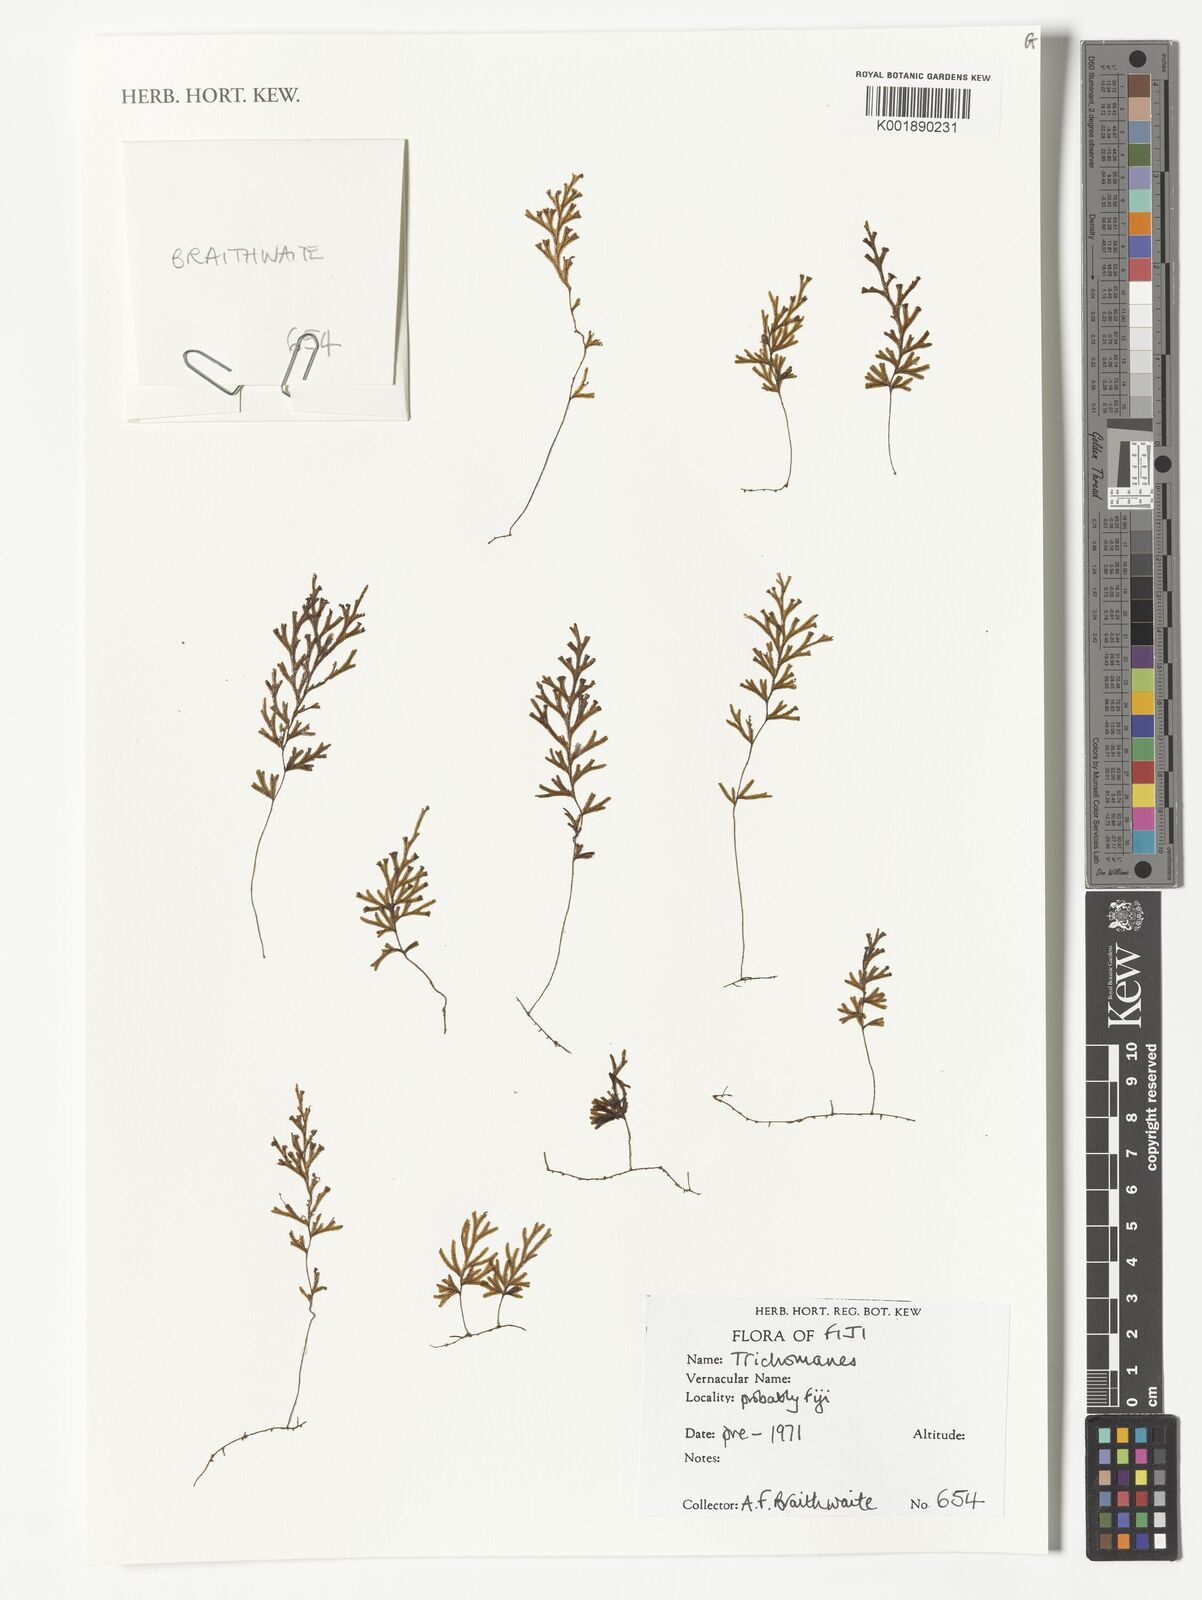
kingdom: Plantae
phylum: Tracheophyta
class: Polypodiopsida
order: Hymenophyllales
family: Hymenophyllaceae
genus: Trichomanes
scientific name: Trichomanes
